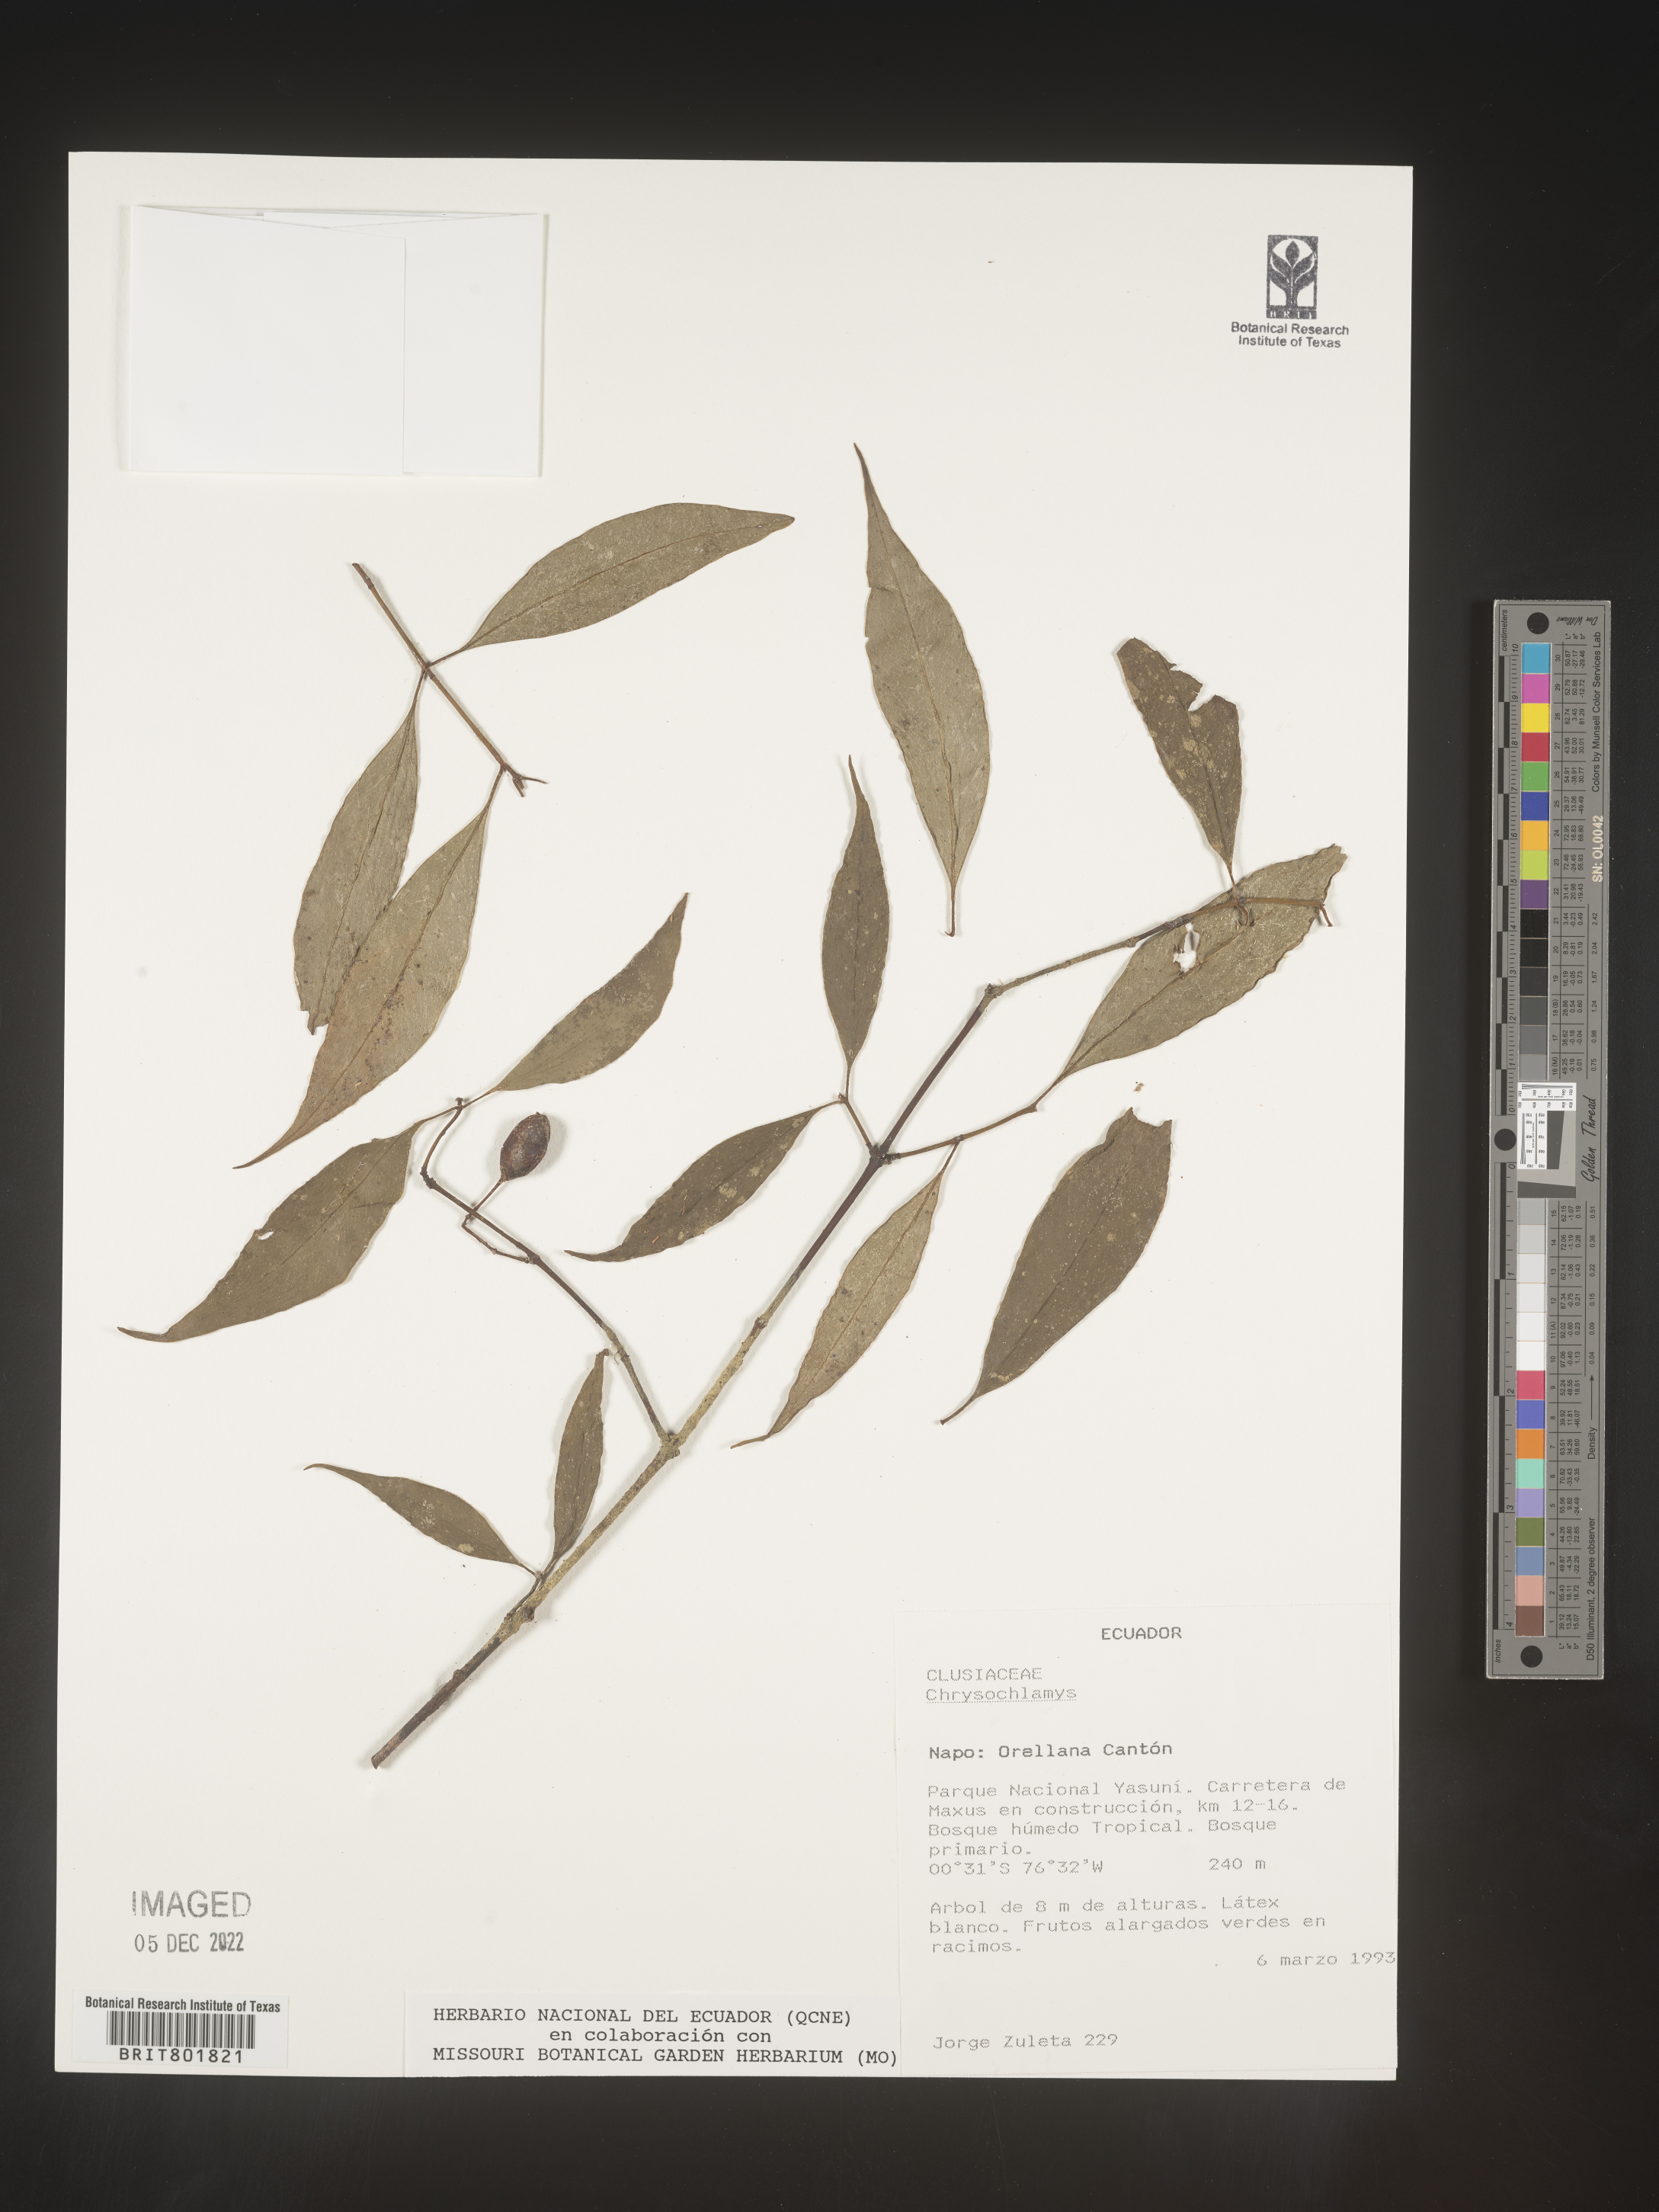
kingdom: Plantae
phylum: Tracheophyta
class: Magnoliopsida
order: Malpighiales
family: Clusiaceae
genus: Chrysochlamys
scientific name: Chrysochlamys
